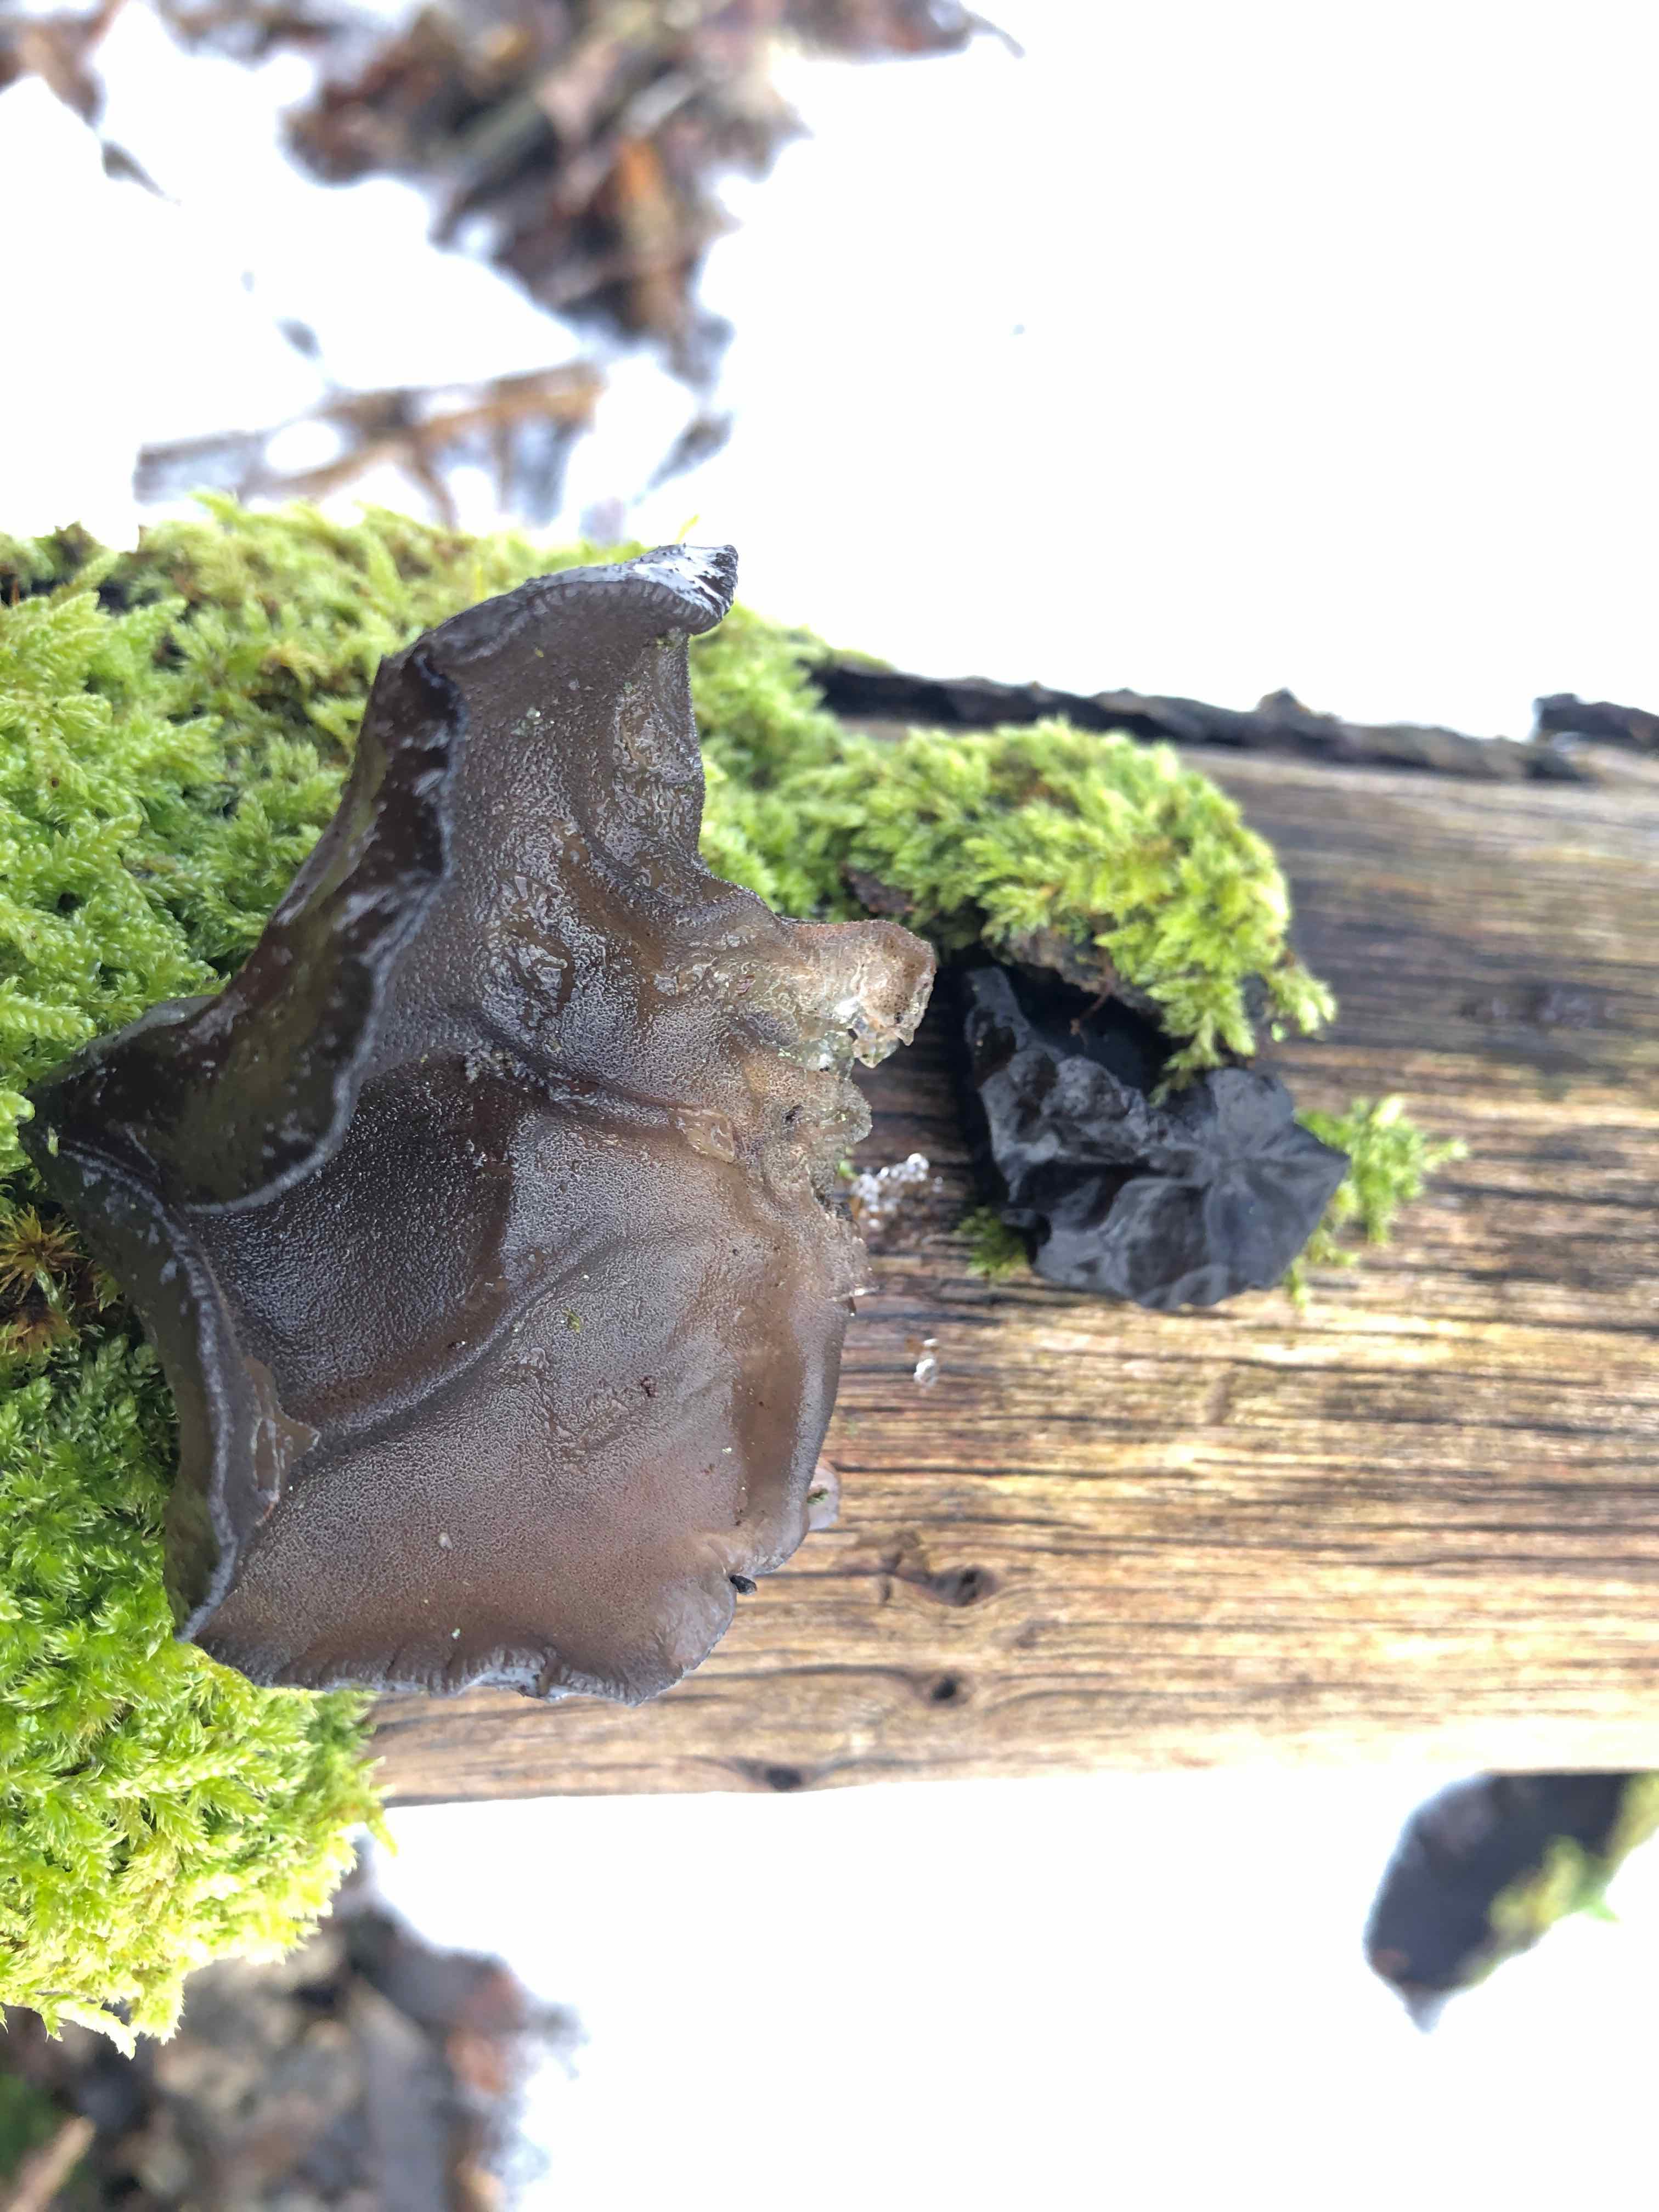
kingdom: Fungi
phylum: Basidiomycota
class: Agaricomycetes
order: Auriculariales
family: Auriculariaceae
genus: Exidia
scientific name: Exidia glandulosa
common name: ege-bævretop
